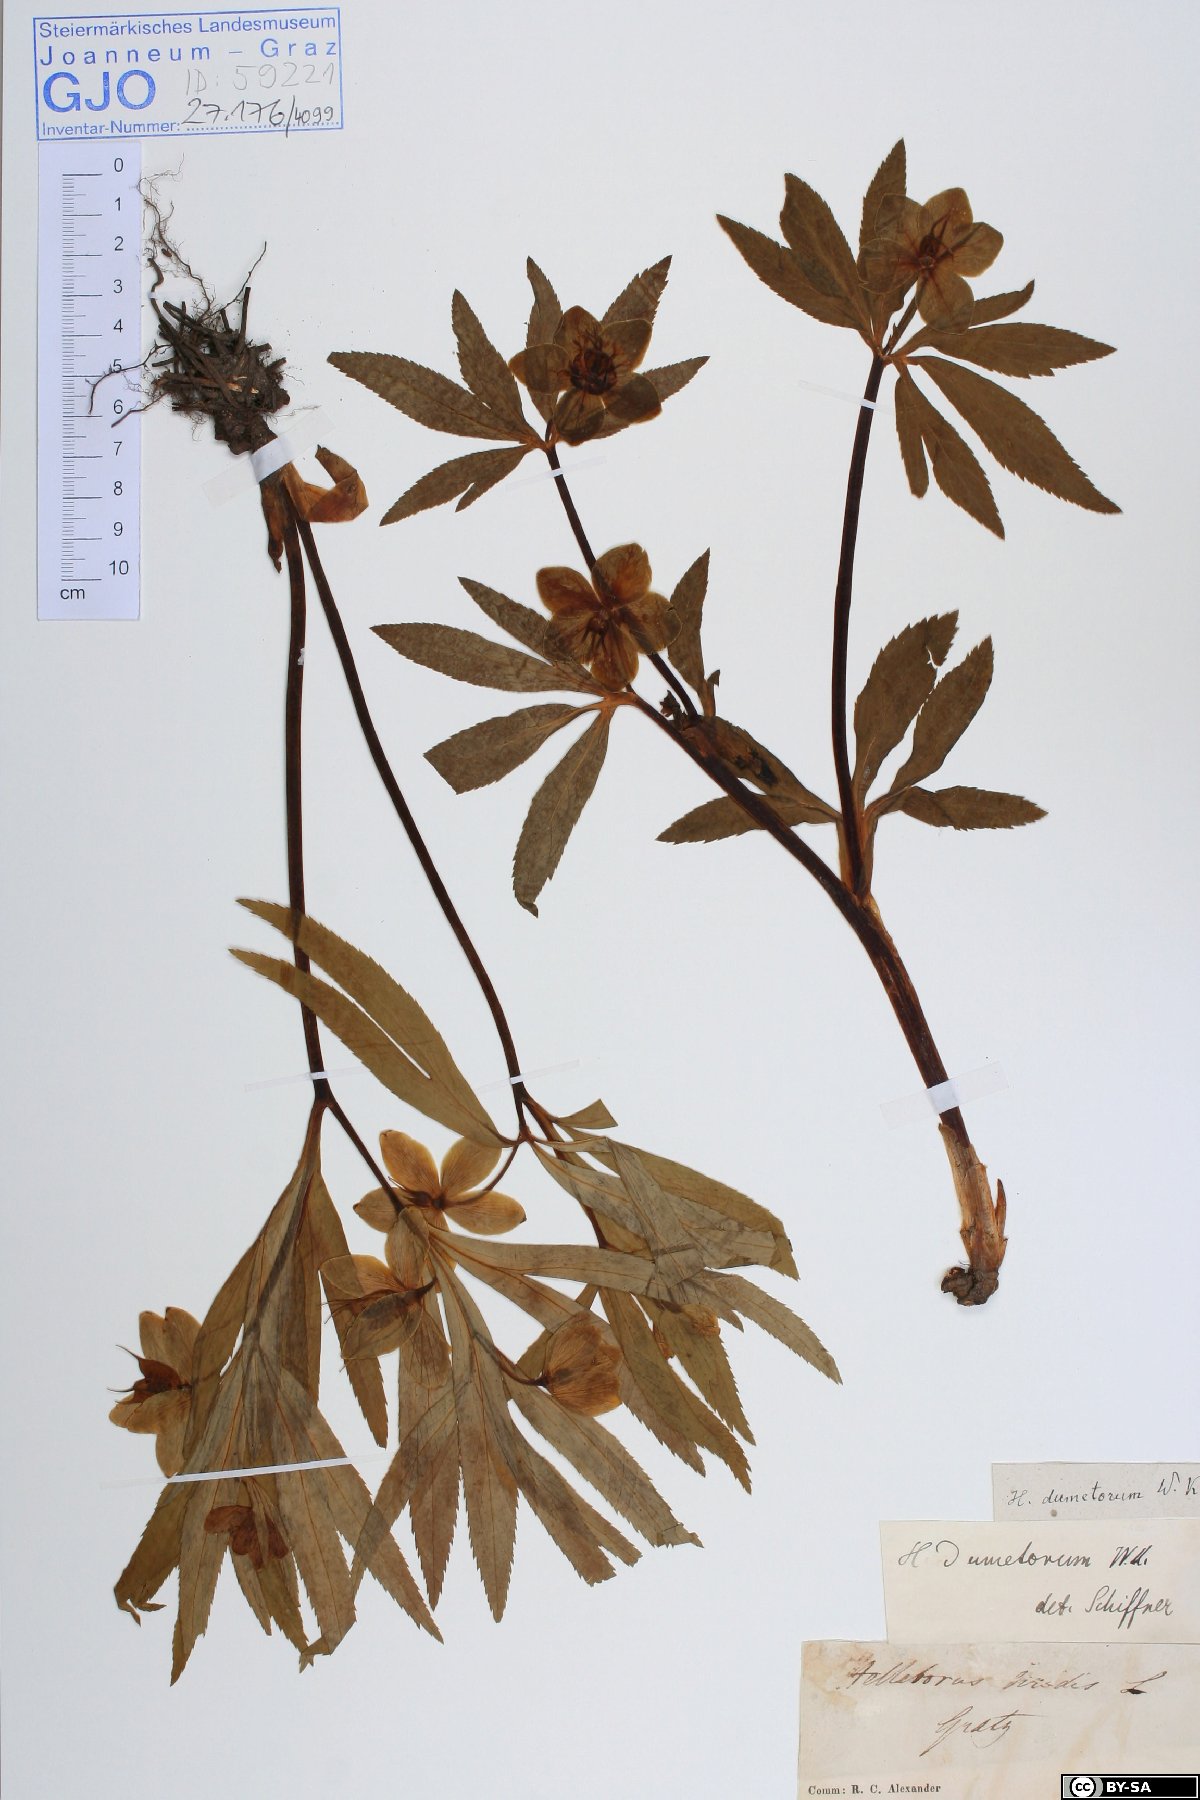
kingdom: Plantae
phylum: Tracheophyta
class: Magnoliopsida
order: Ranunculales
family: Ranunculaceae
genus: Helleborus
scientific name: Helleborus dumetorum
